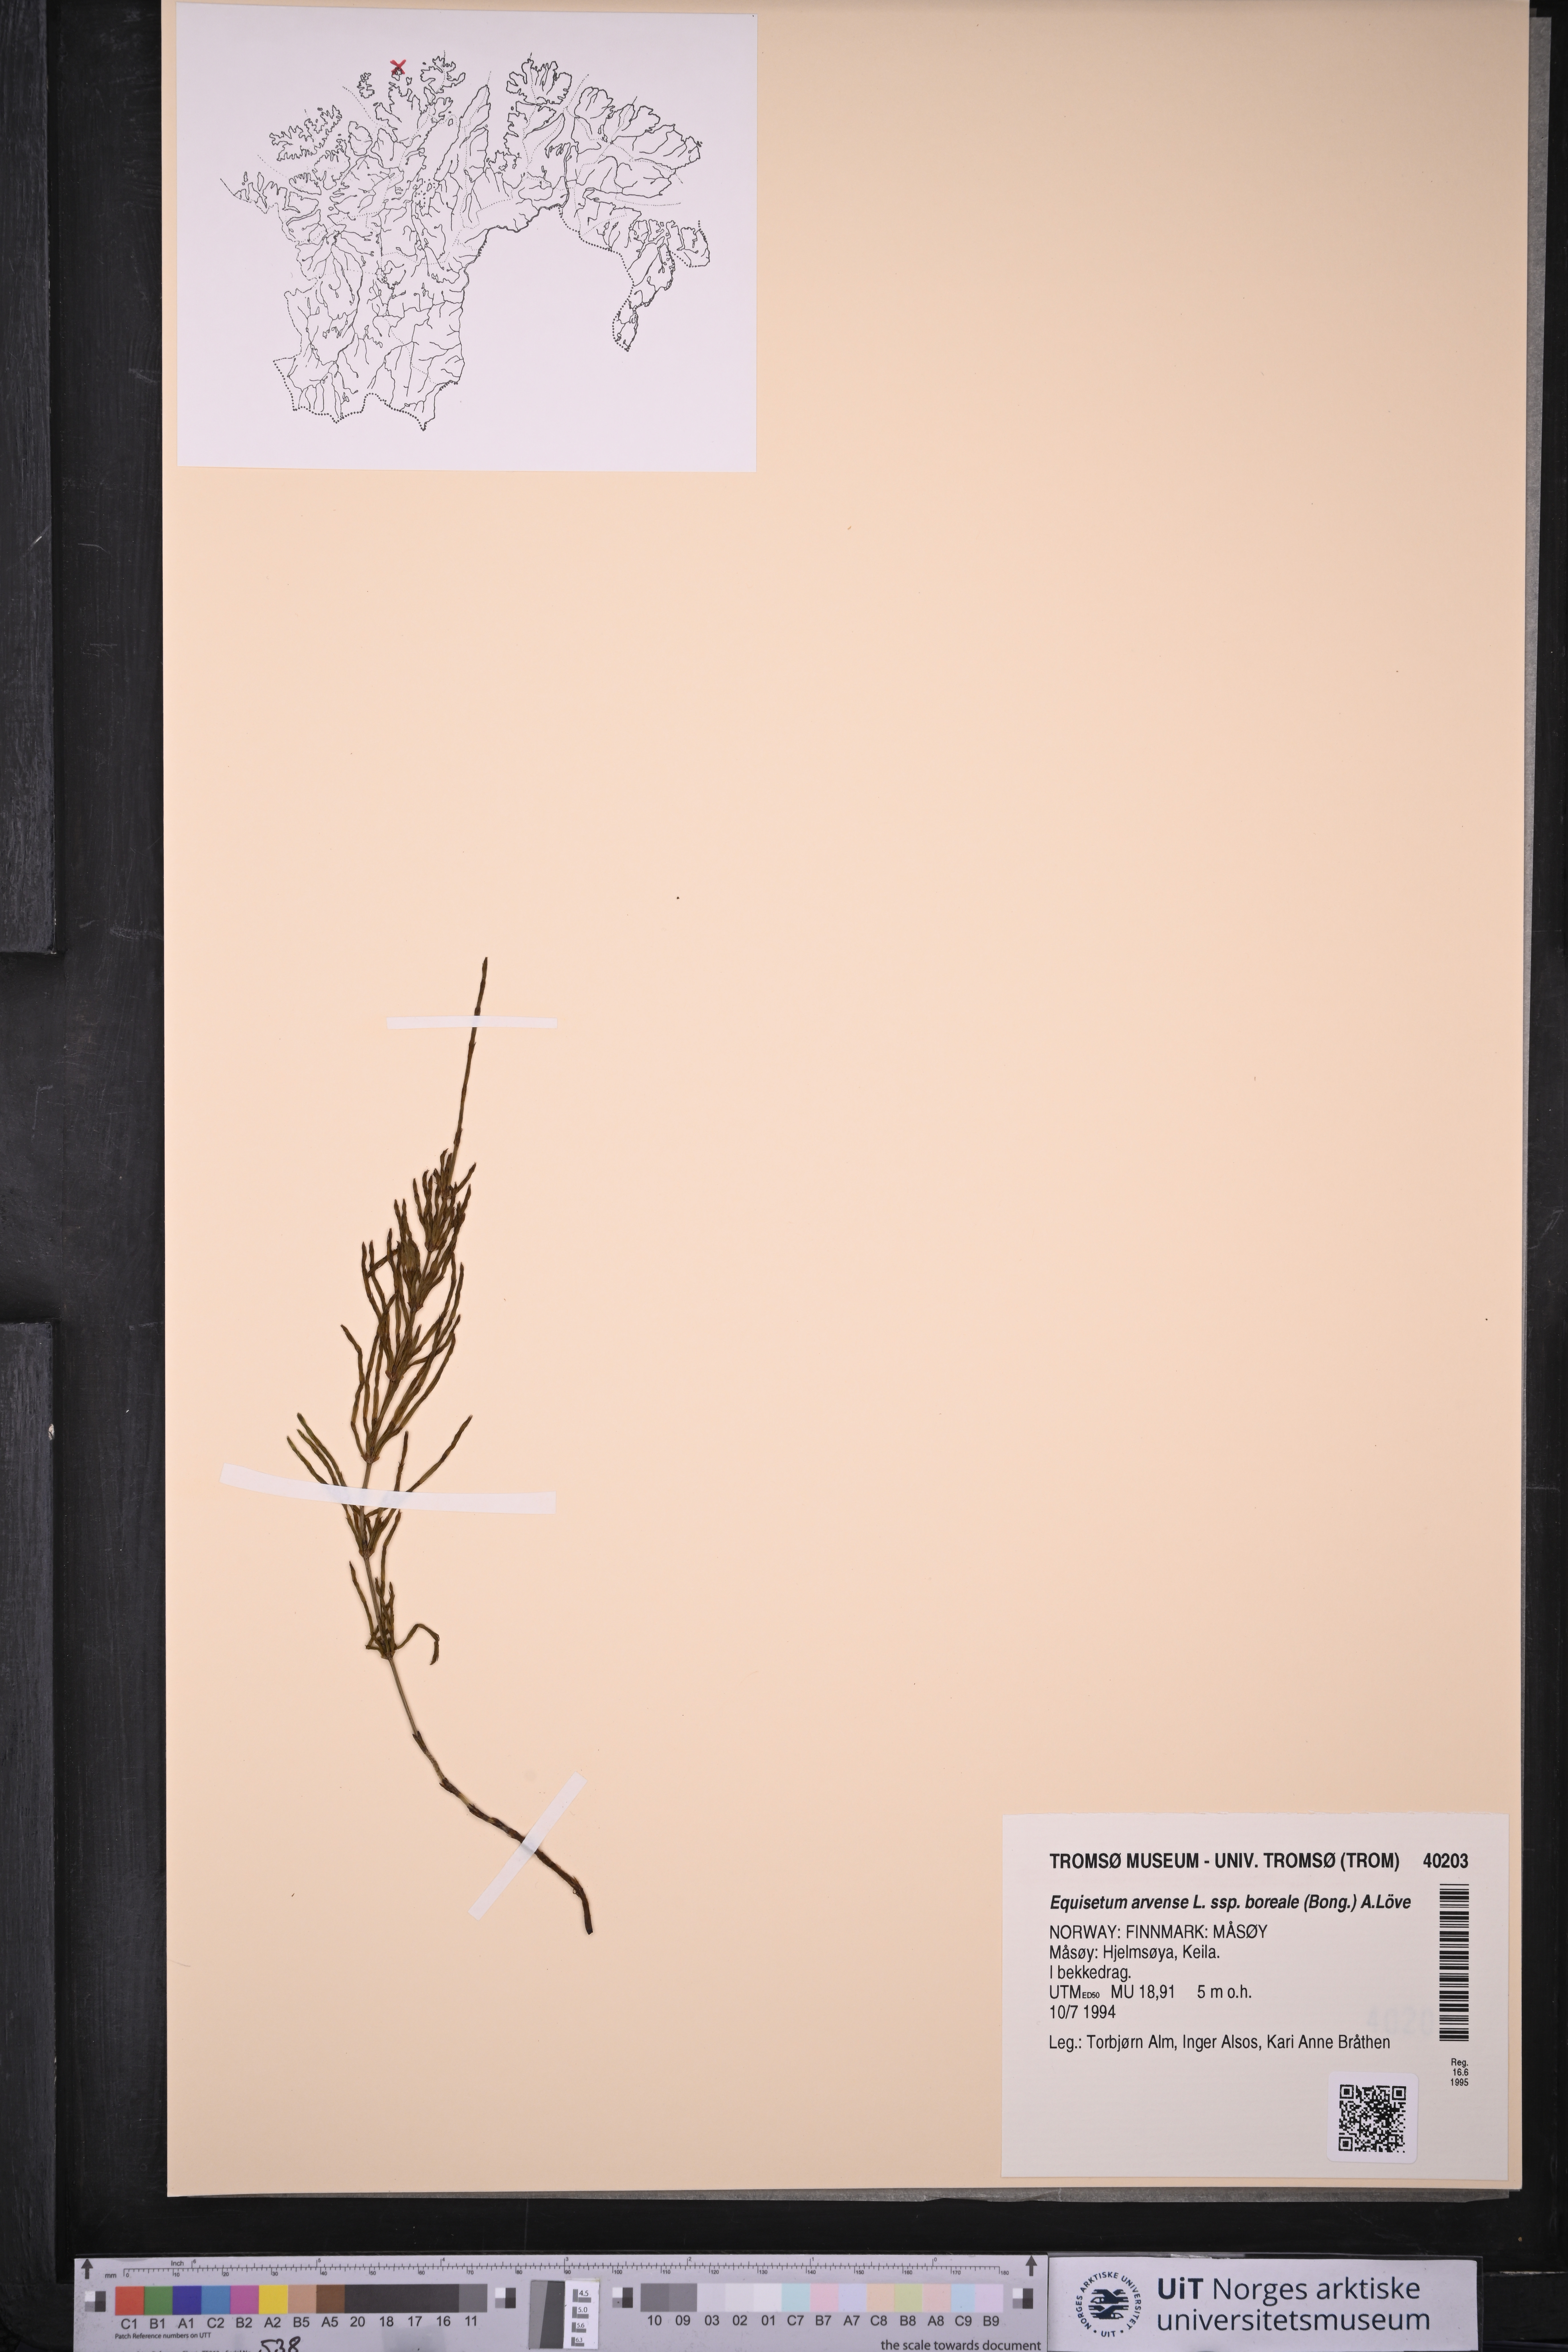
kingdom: Plantae
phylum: Tracheophyta
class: Polypodiopsida
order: Equisetales
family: Equisetaceae
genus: Equisetum
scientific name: Equisetum arvense
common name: Field horsetail
